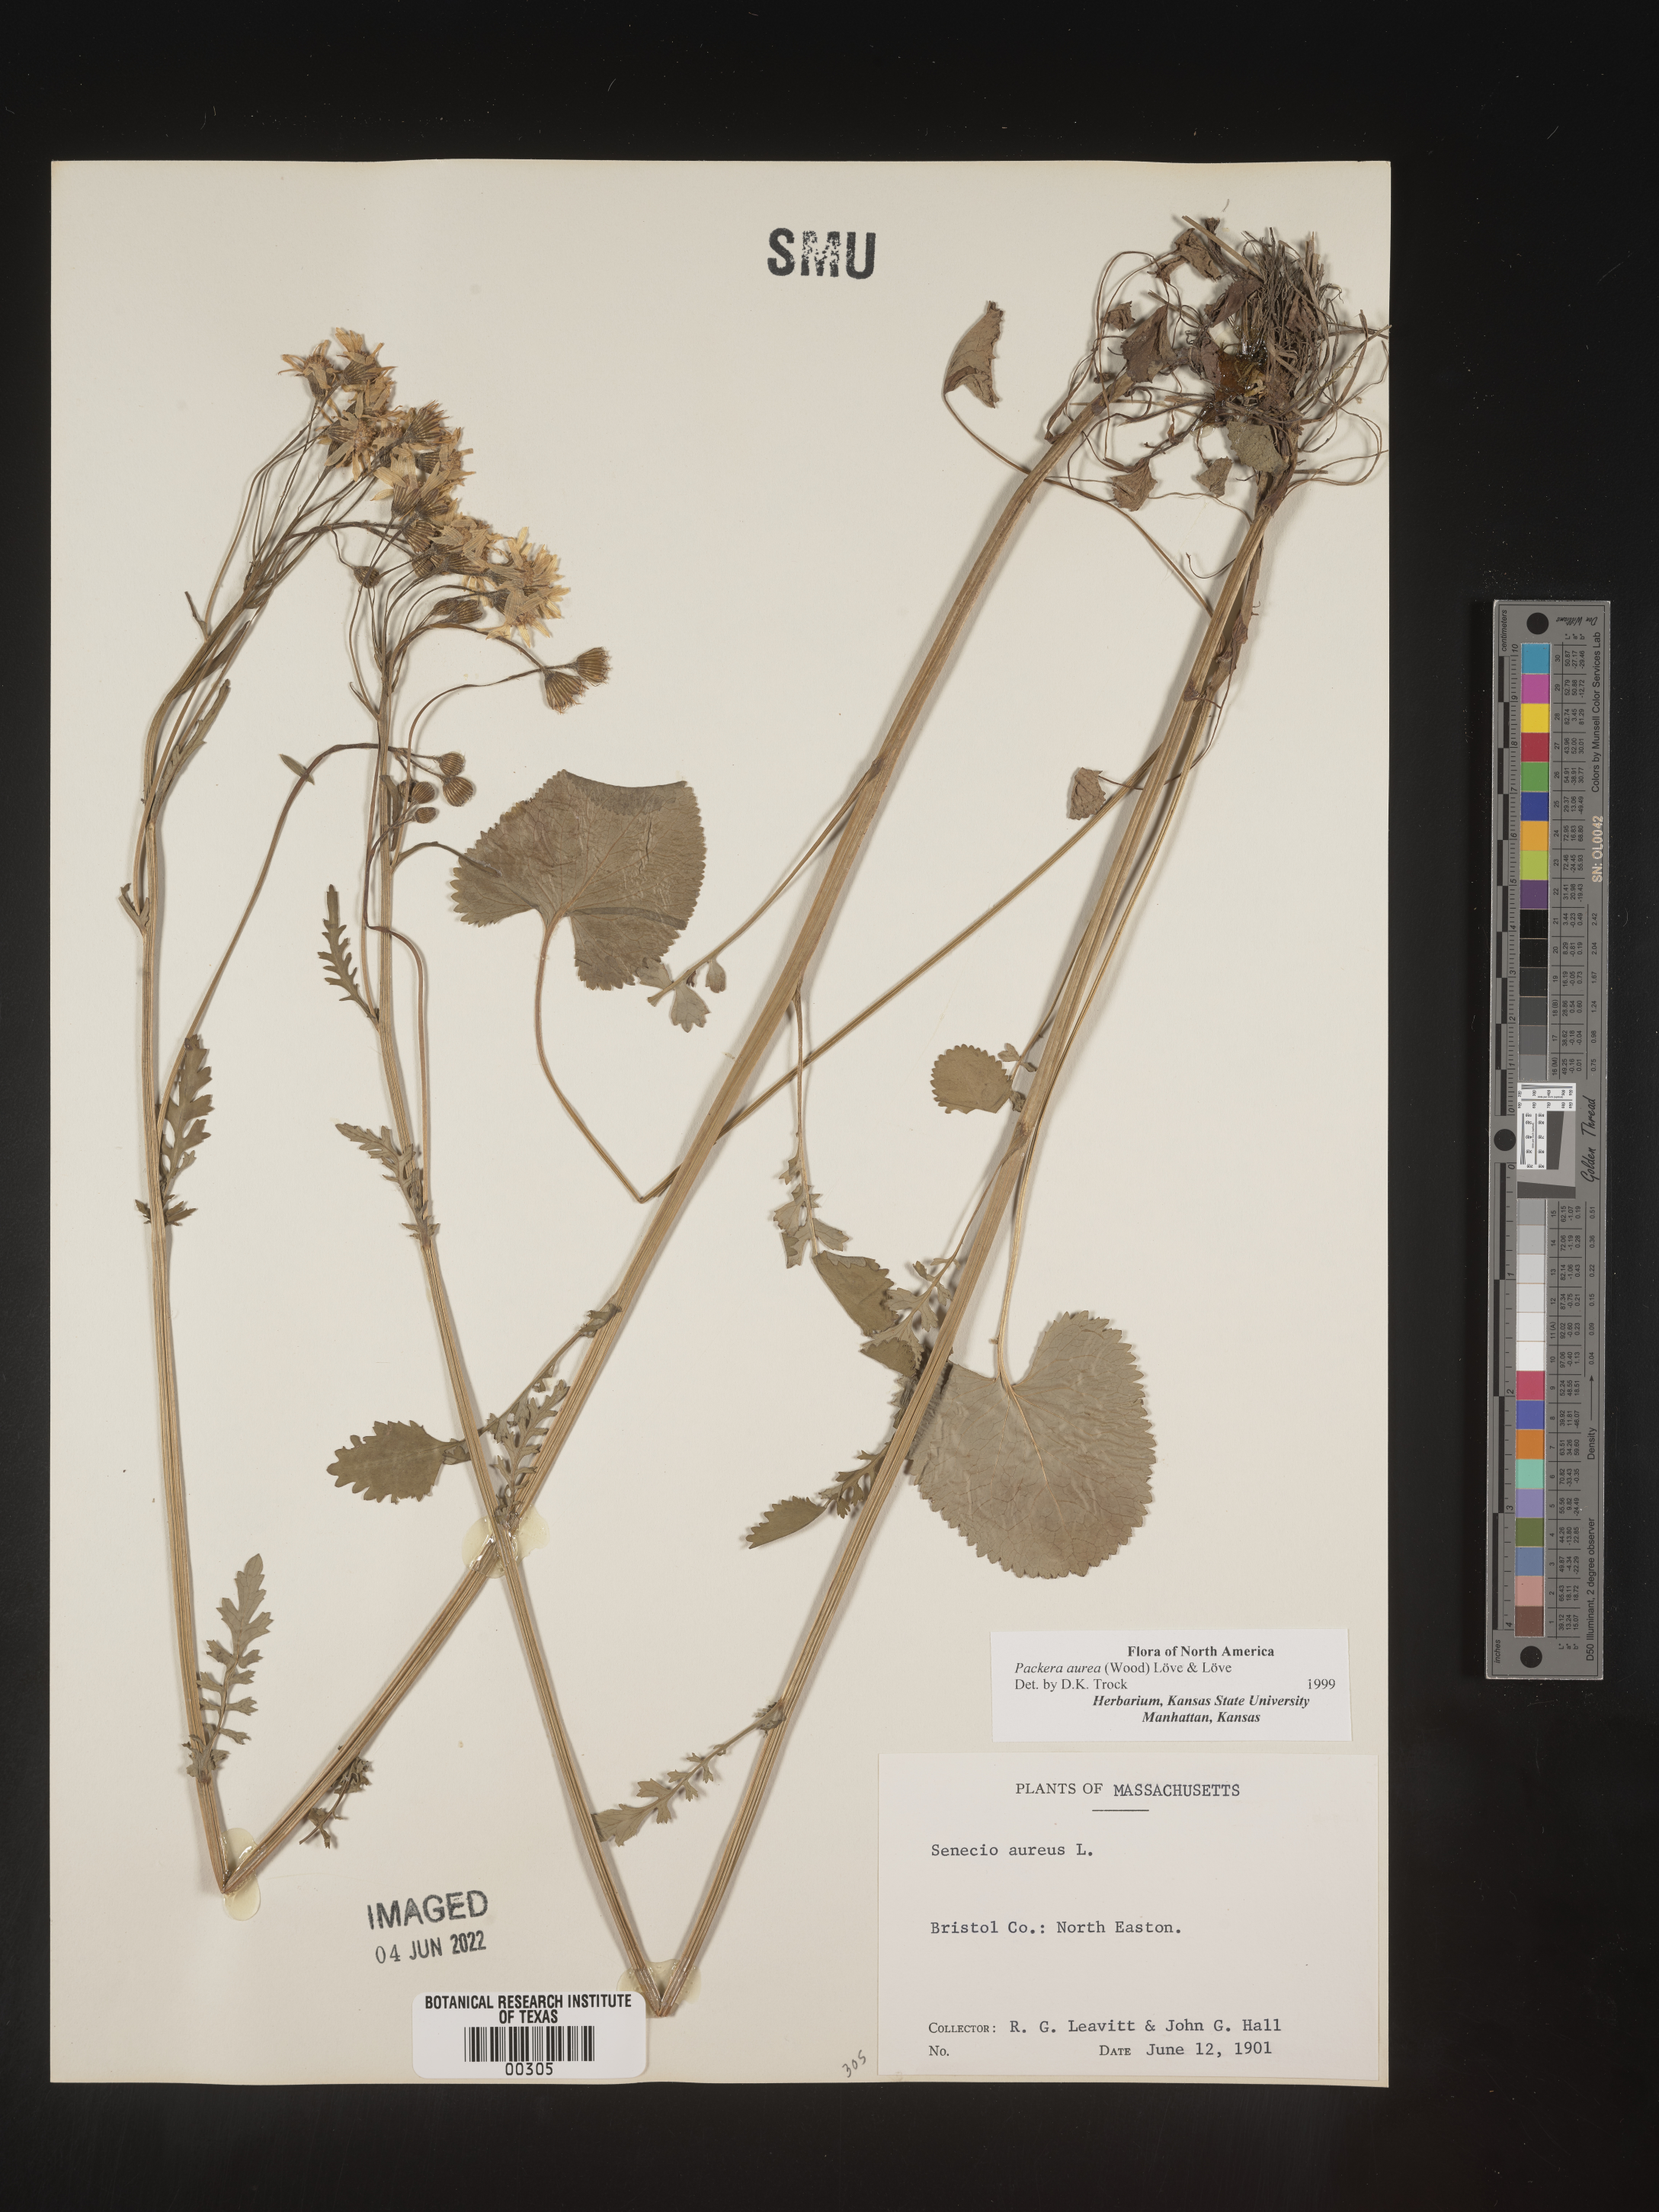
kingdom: Plantae
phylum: Tracheophyta
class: Magnoliopsida
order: Asterales
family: Asteraceae
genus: Packera
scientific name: Packera aurea
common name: Golden groundsel
